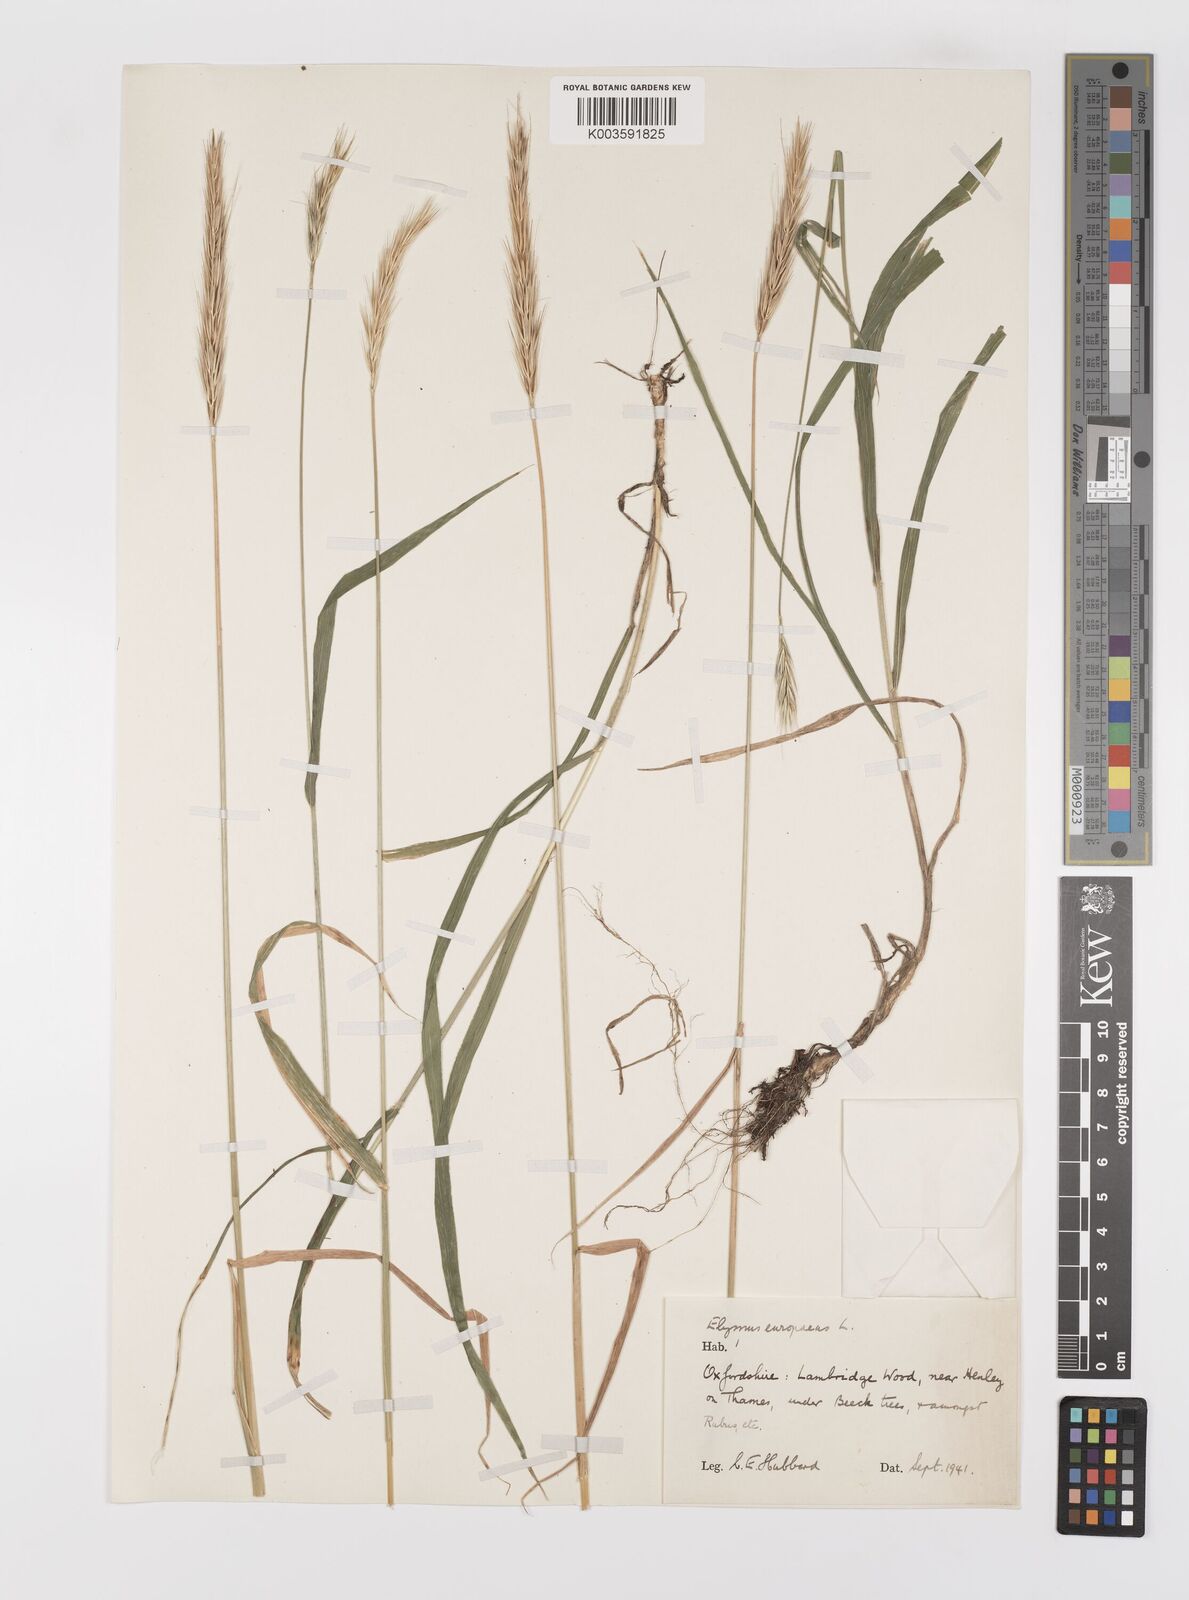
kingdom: Plantae
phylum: Tracheophyta
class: Liliopsida
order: Poales
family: Poaceae
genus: Hordelymus
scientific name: Hordelymus europaeus
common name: Wood-barley
